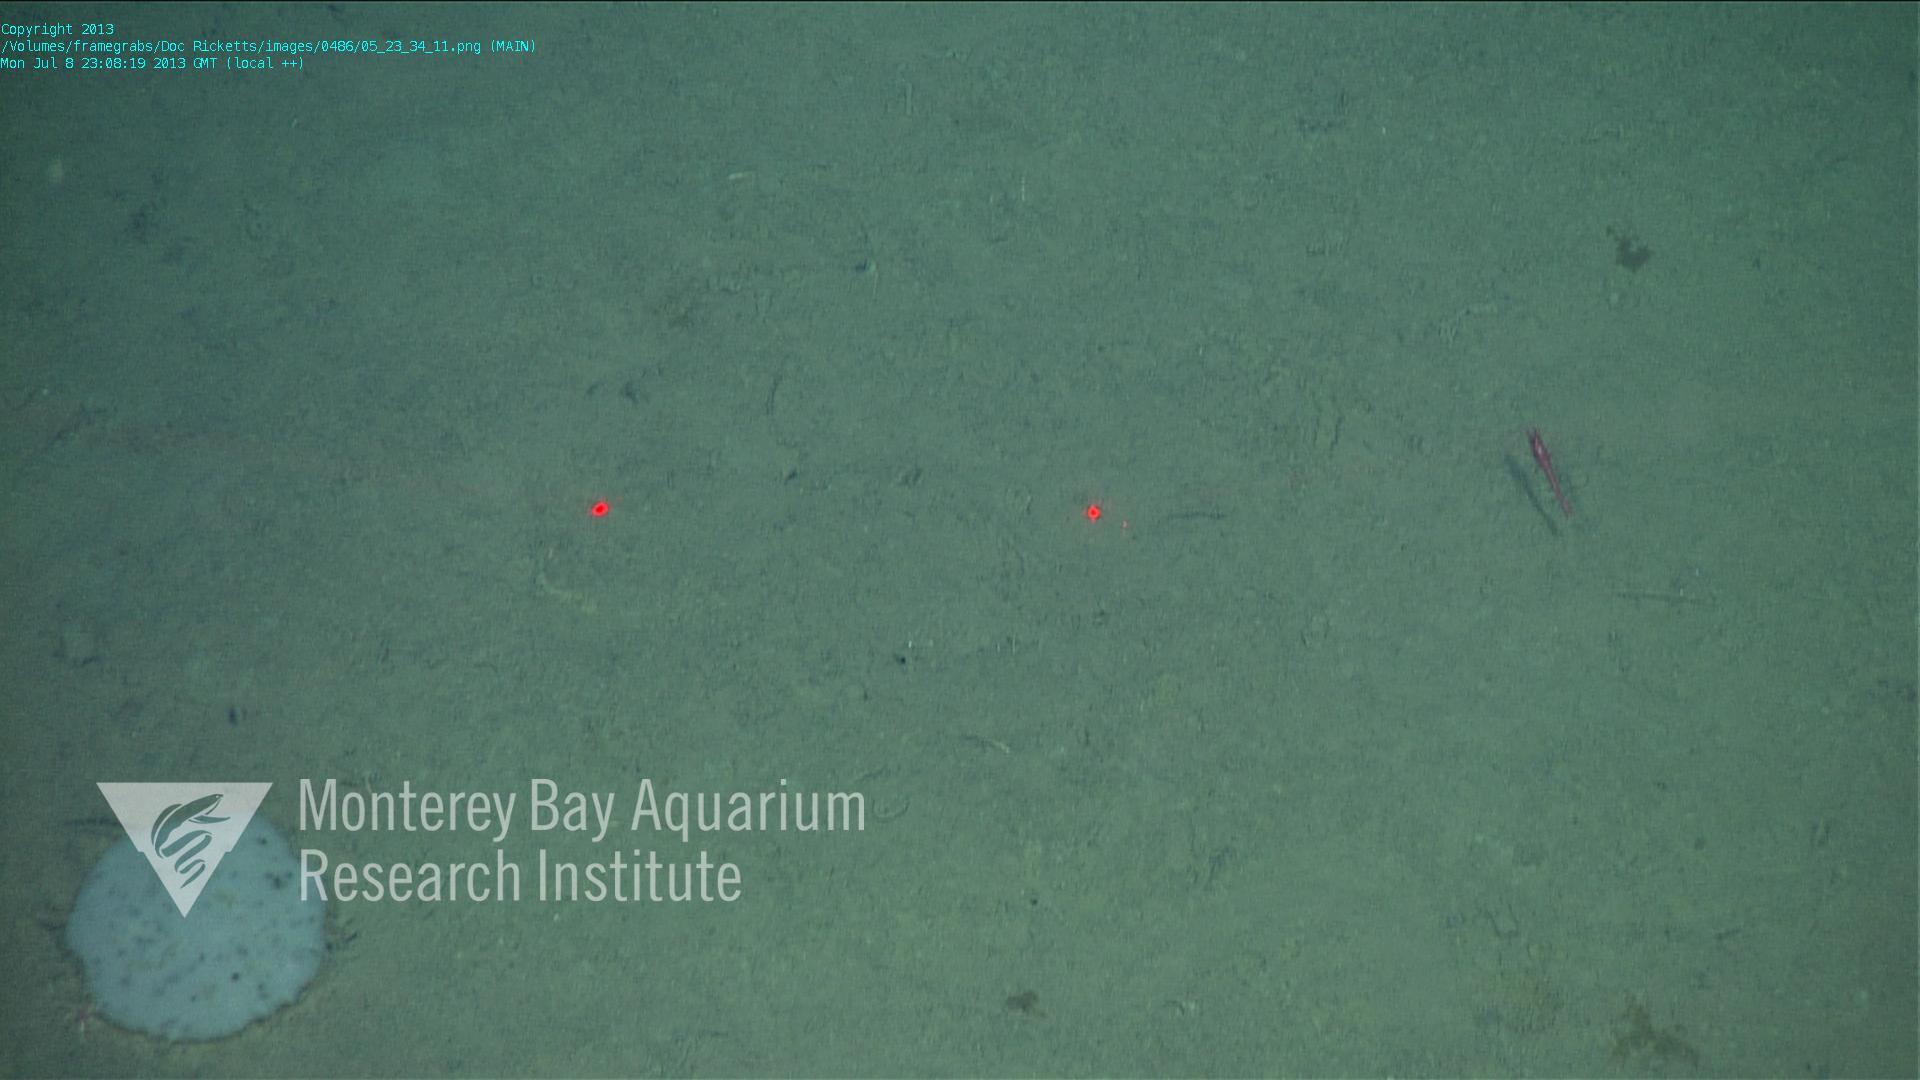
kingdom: Animalia
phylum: Porifera
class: Hexactinellida
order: Lyssacinosida
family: Euplectellidae
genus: Docosaccus
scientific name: Docosaccus maculatus
